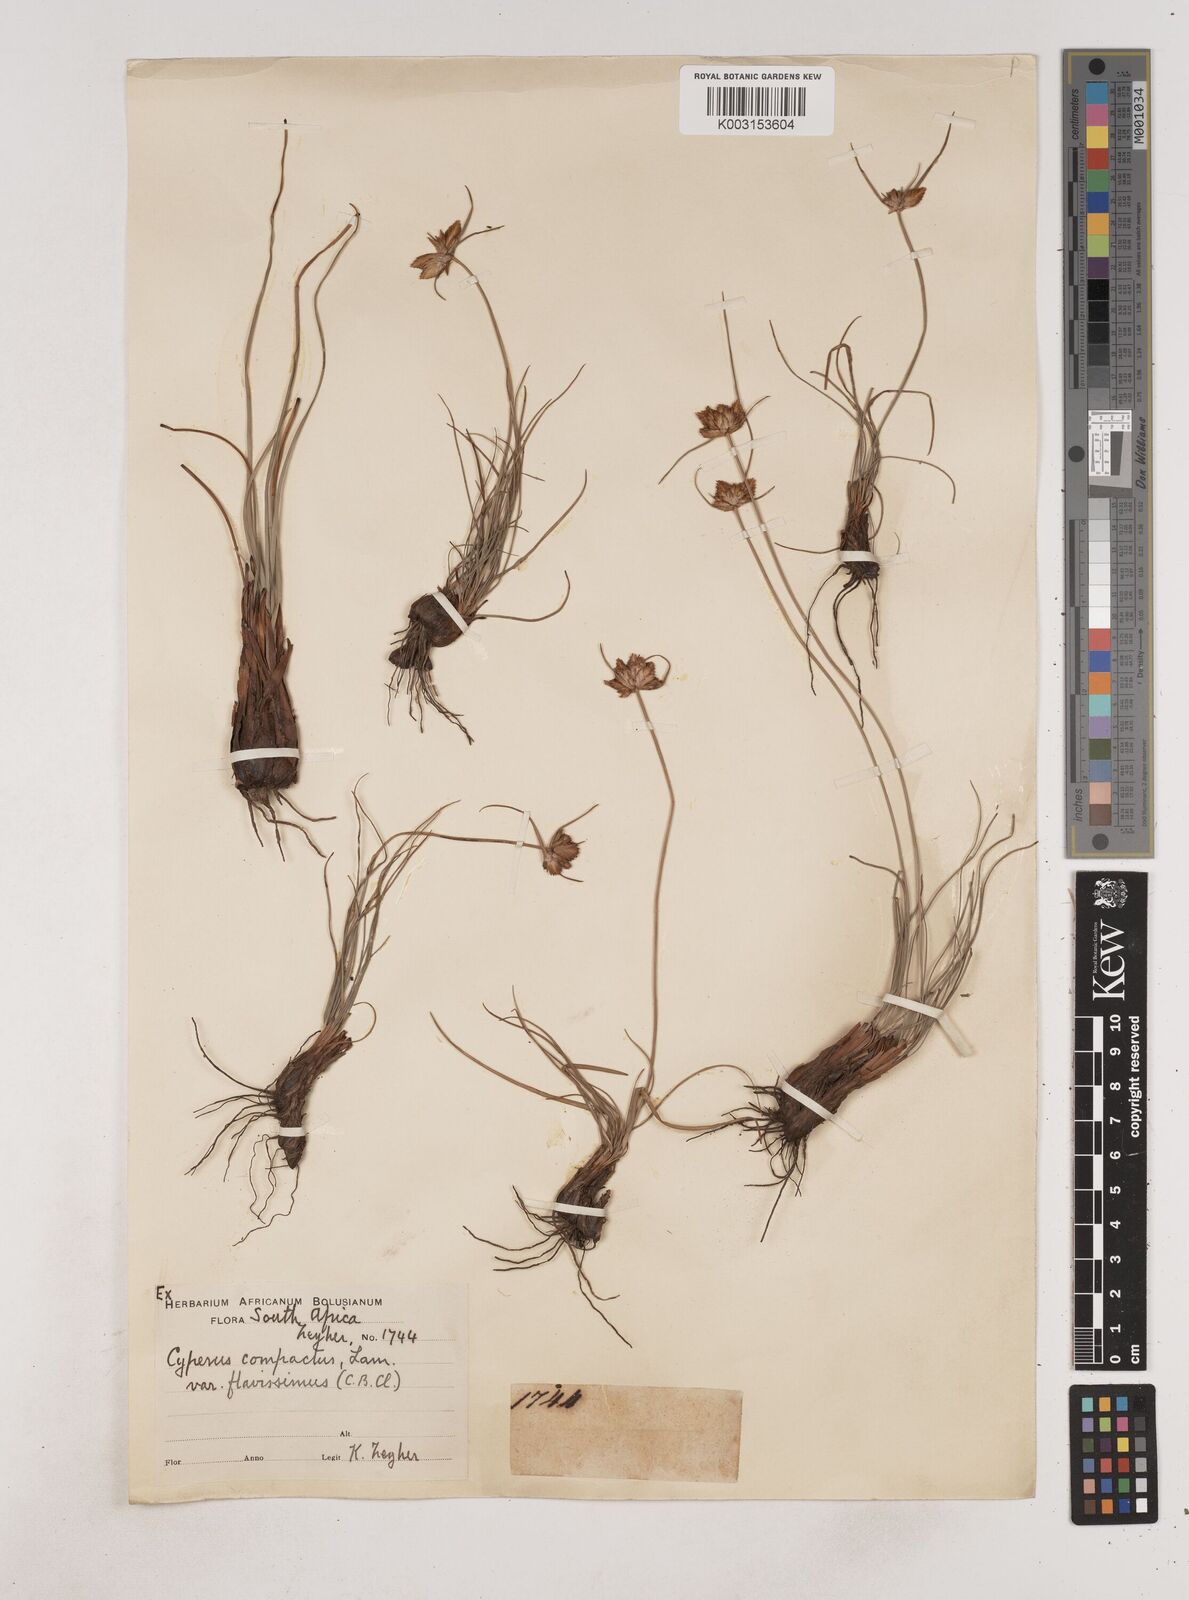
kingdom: Plantae
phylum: Tracheophyta
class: Liliopsida
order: Poales
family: Cyperaceae
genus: Cyperus
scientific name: Cyperus niveus
